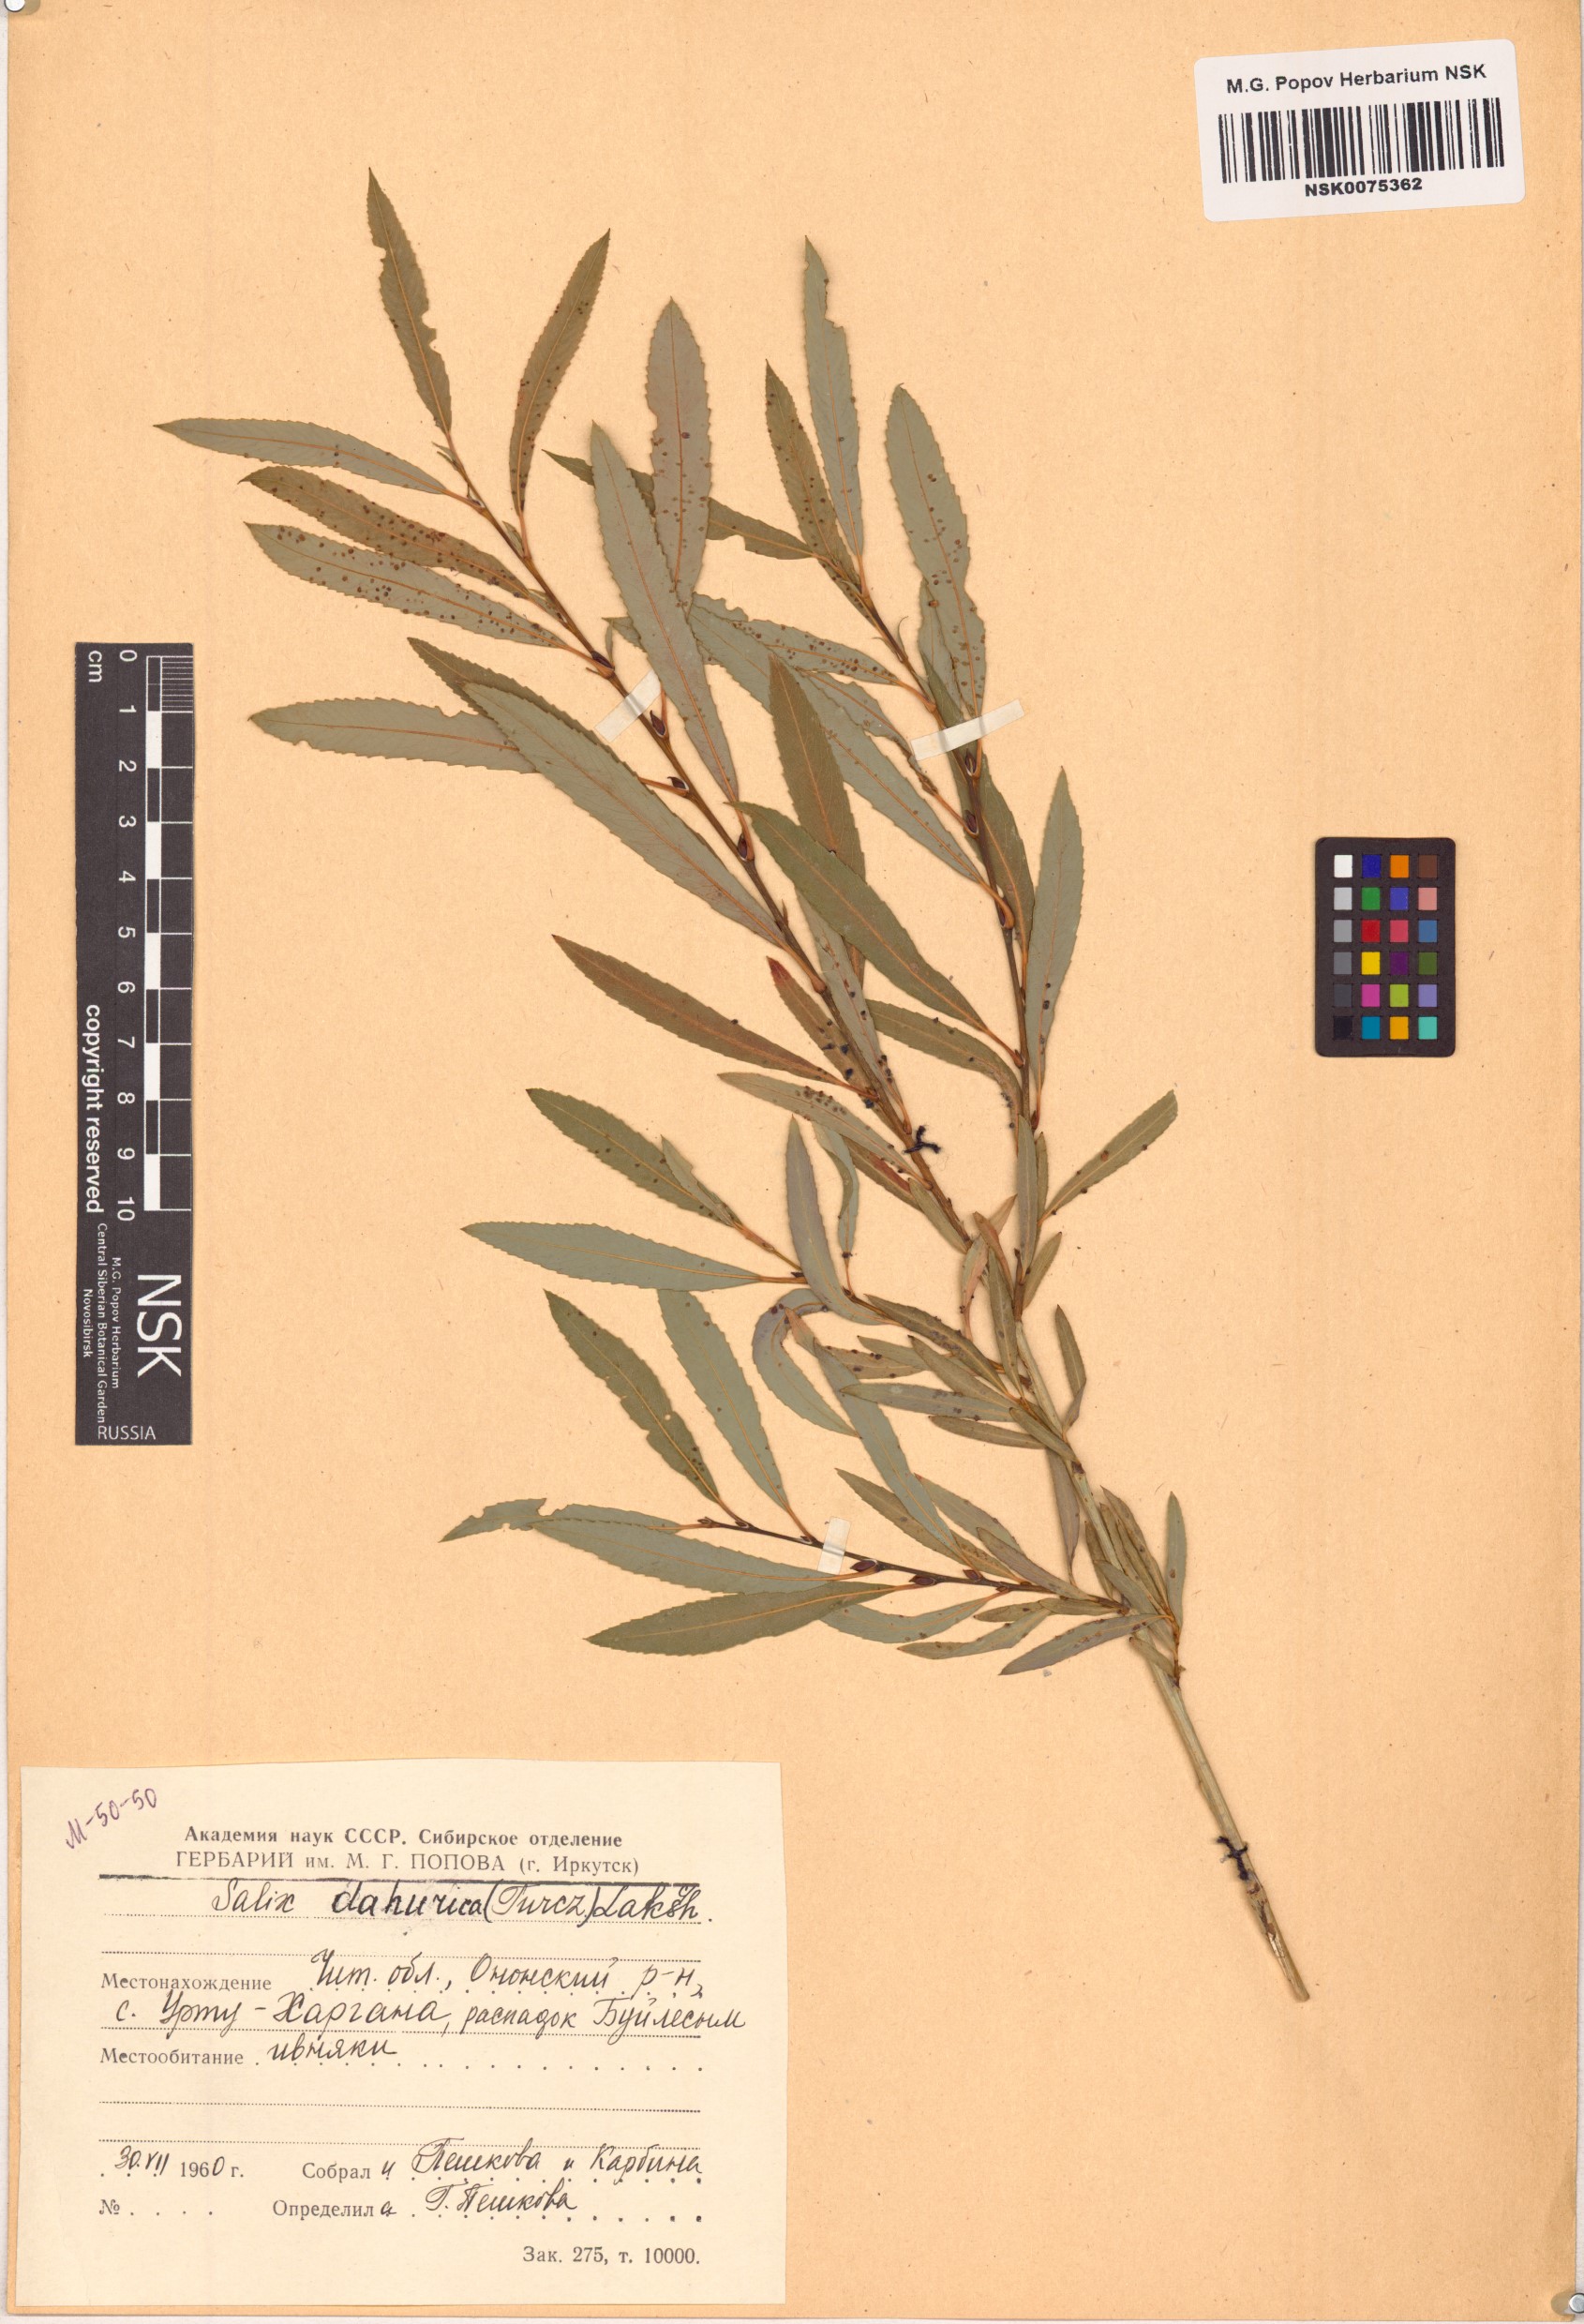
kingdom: Plantae
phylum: Tracheophyta
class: Magnoliopsida
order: Malpighiales
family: Salicaceae
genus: Salix
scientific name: Salix
